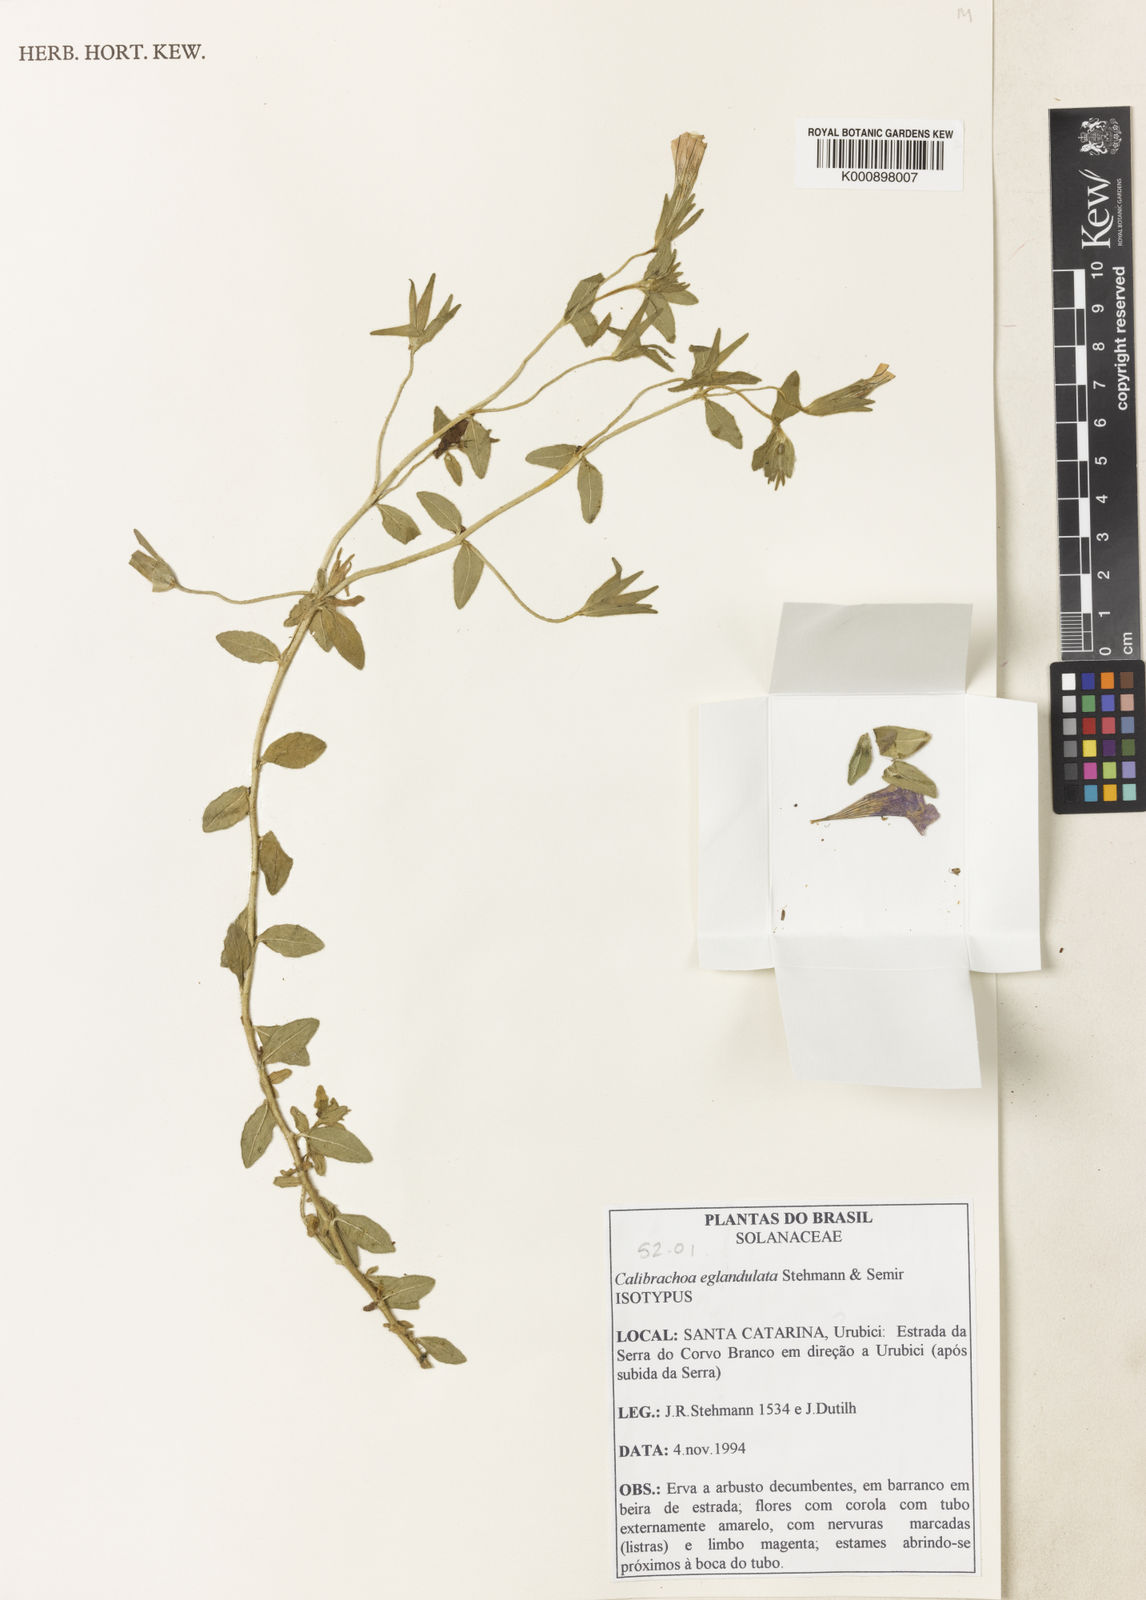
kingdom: Plantae
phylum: Tracheophyta
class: Magnoliopsida
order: Solanales
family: Solanaceae
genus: Calibrachoa
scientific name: Calibrachoa eglandulata
